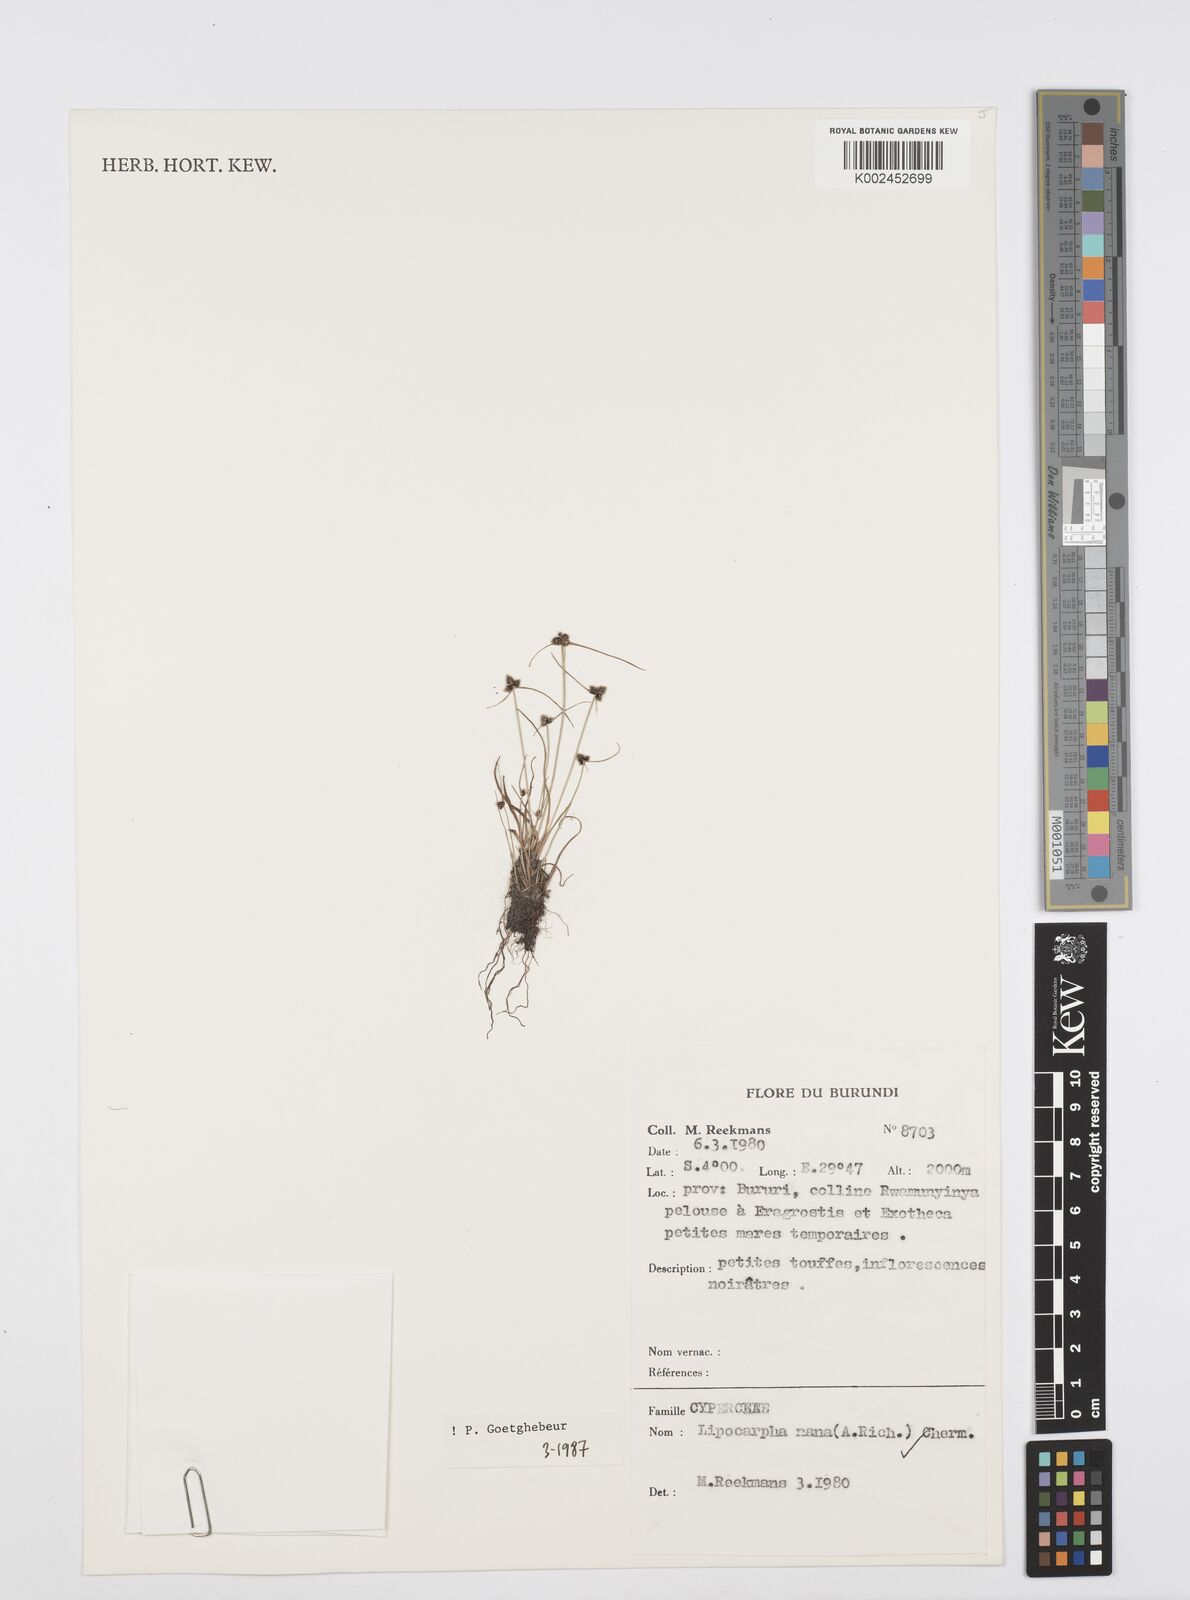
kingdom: Plantae
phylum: Tracheophyta
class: Liliopsida
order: Poales
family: Cyperaceae
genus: Cyperus
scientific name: Cyperus persquarrosus
